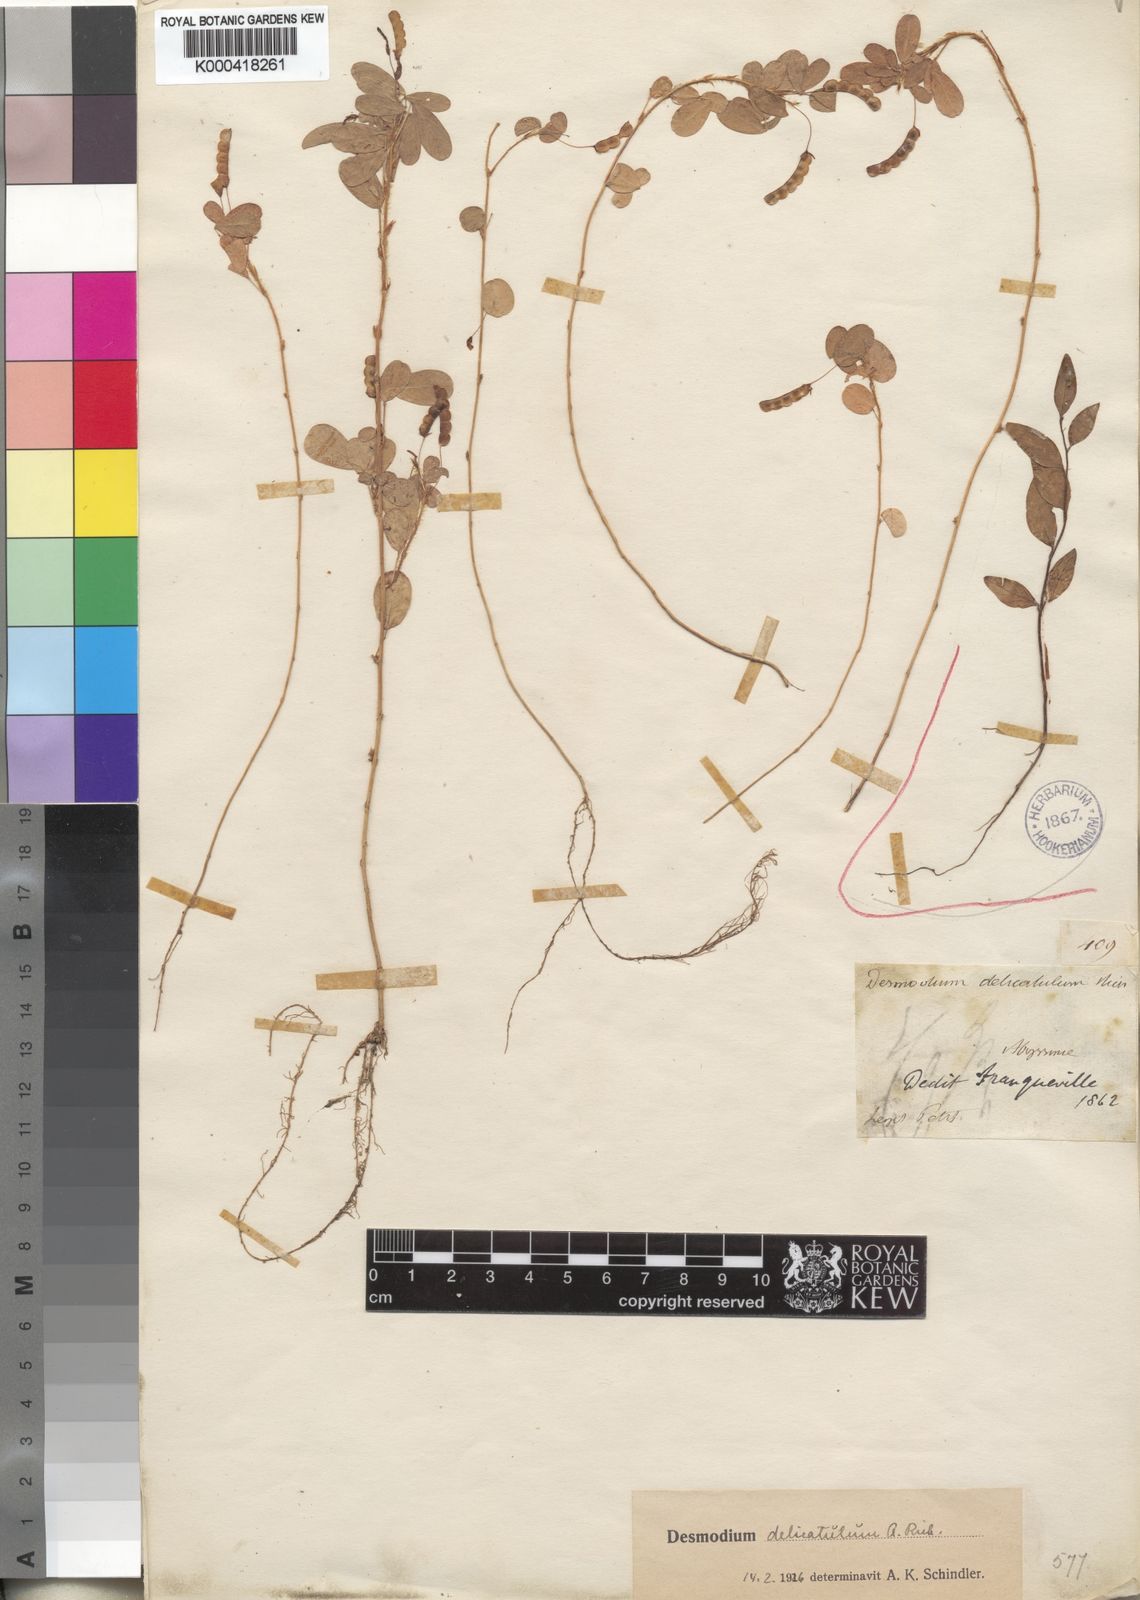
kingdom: Plantae
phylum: Tracheophyta
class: Magnoliopsida
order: Fabales
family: Fabaceae
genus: Grona
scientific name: Grona hirta
